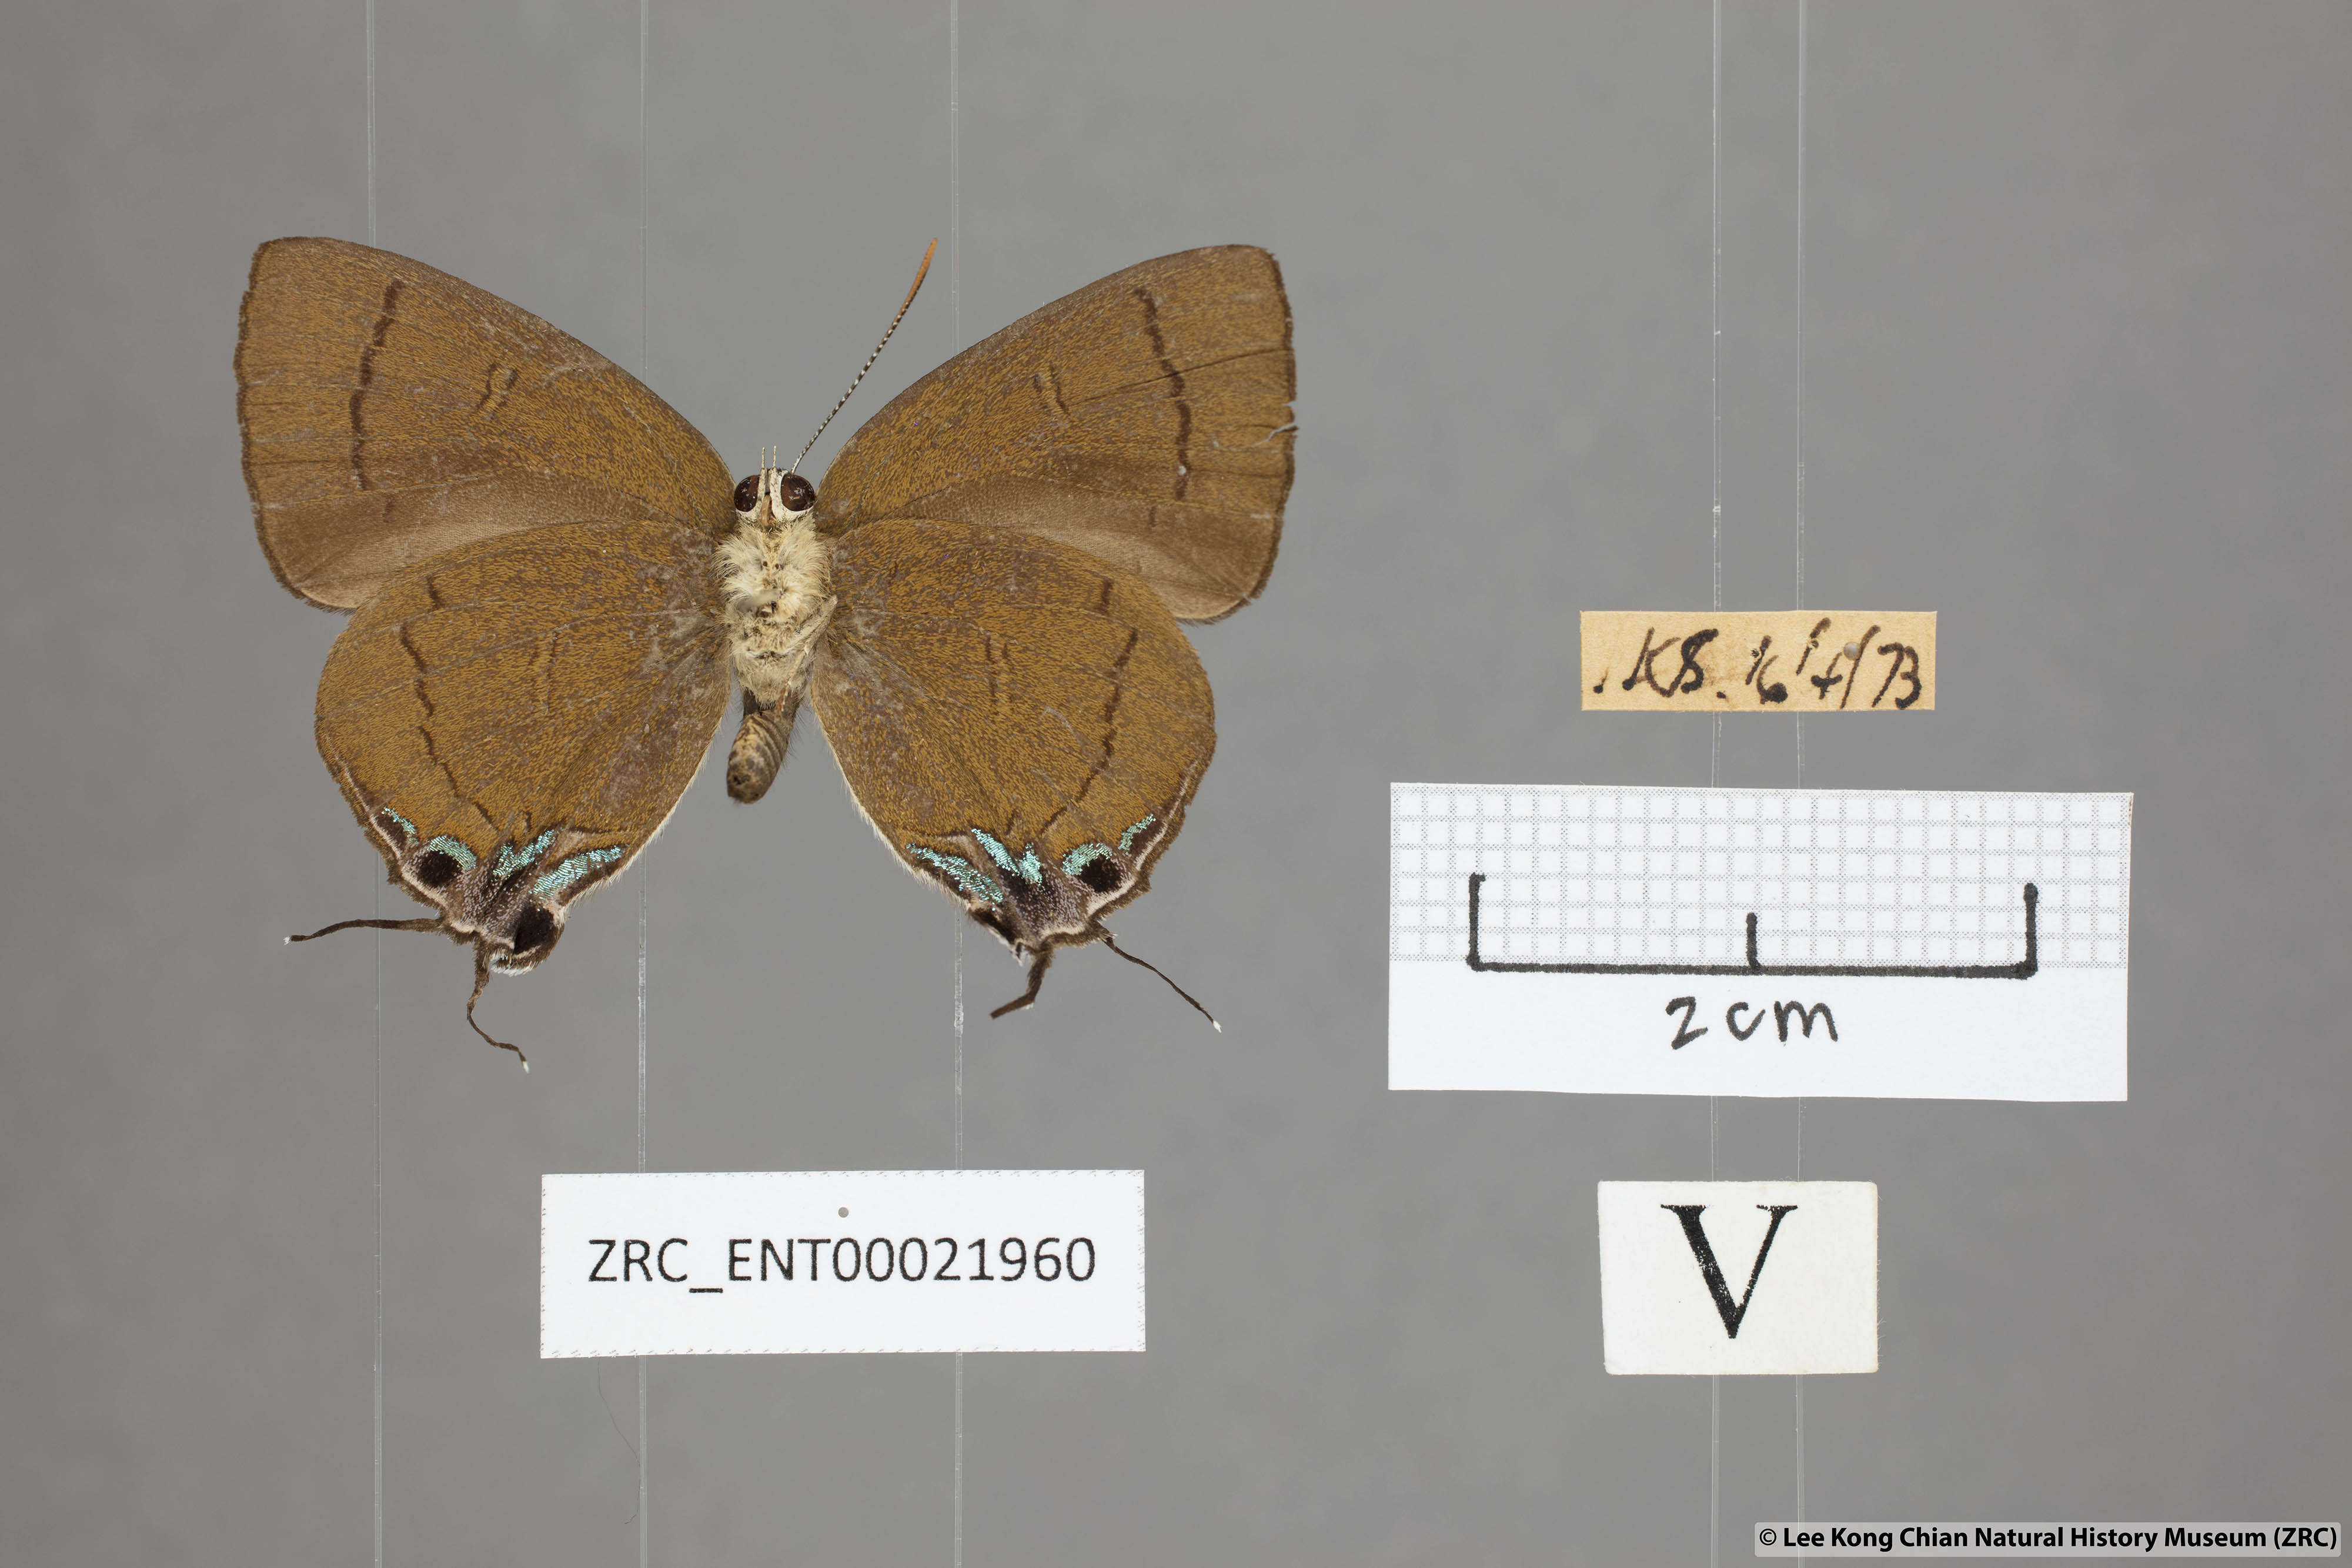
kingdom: Animalia
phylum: Arthropoda
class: Insecta
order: Lepidoptera
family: Lycaenidae
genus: Remelana
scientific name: Remelana jangala
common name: Chocolate royal
